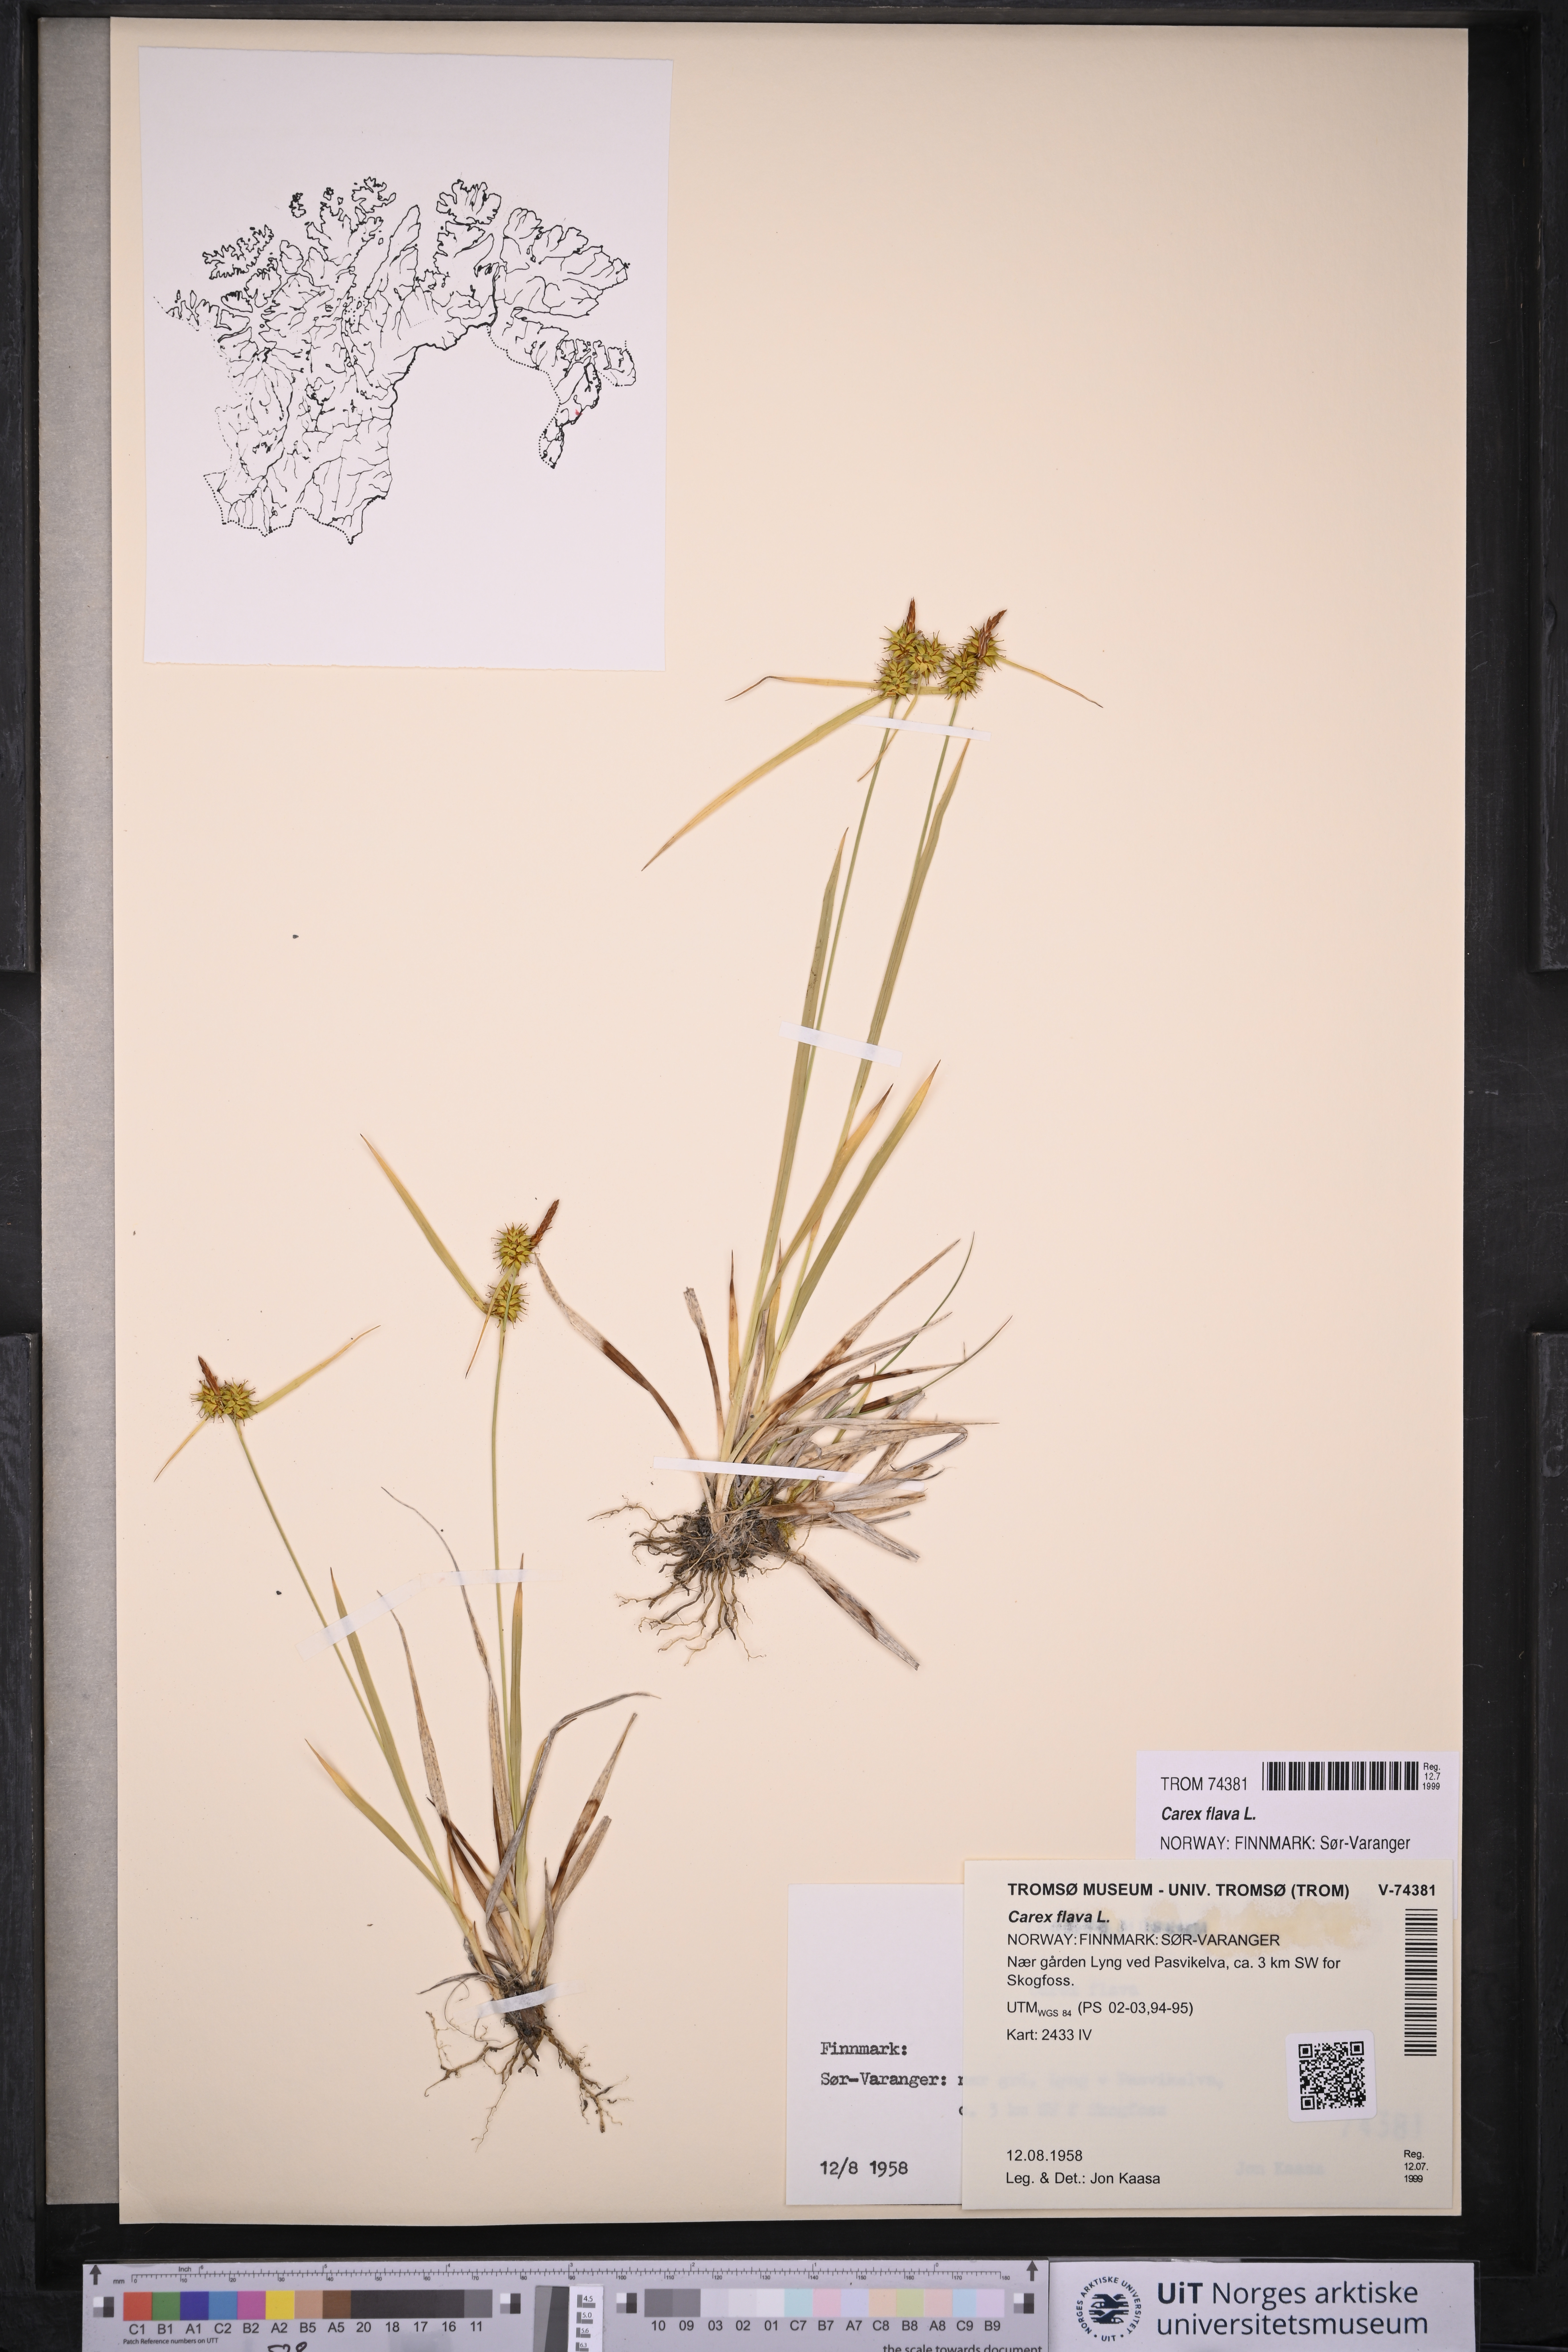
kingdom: Plantae
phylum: Tracheophyta
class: Liliopsida
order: Poales
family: Cyperaceae
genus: Carex
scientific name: Carex flava
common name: Large yellow-sedge
